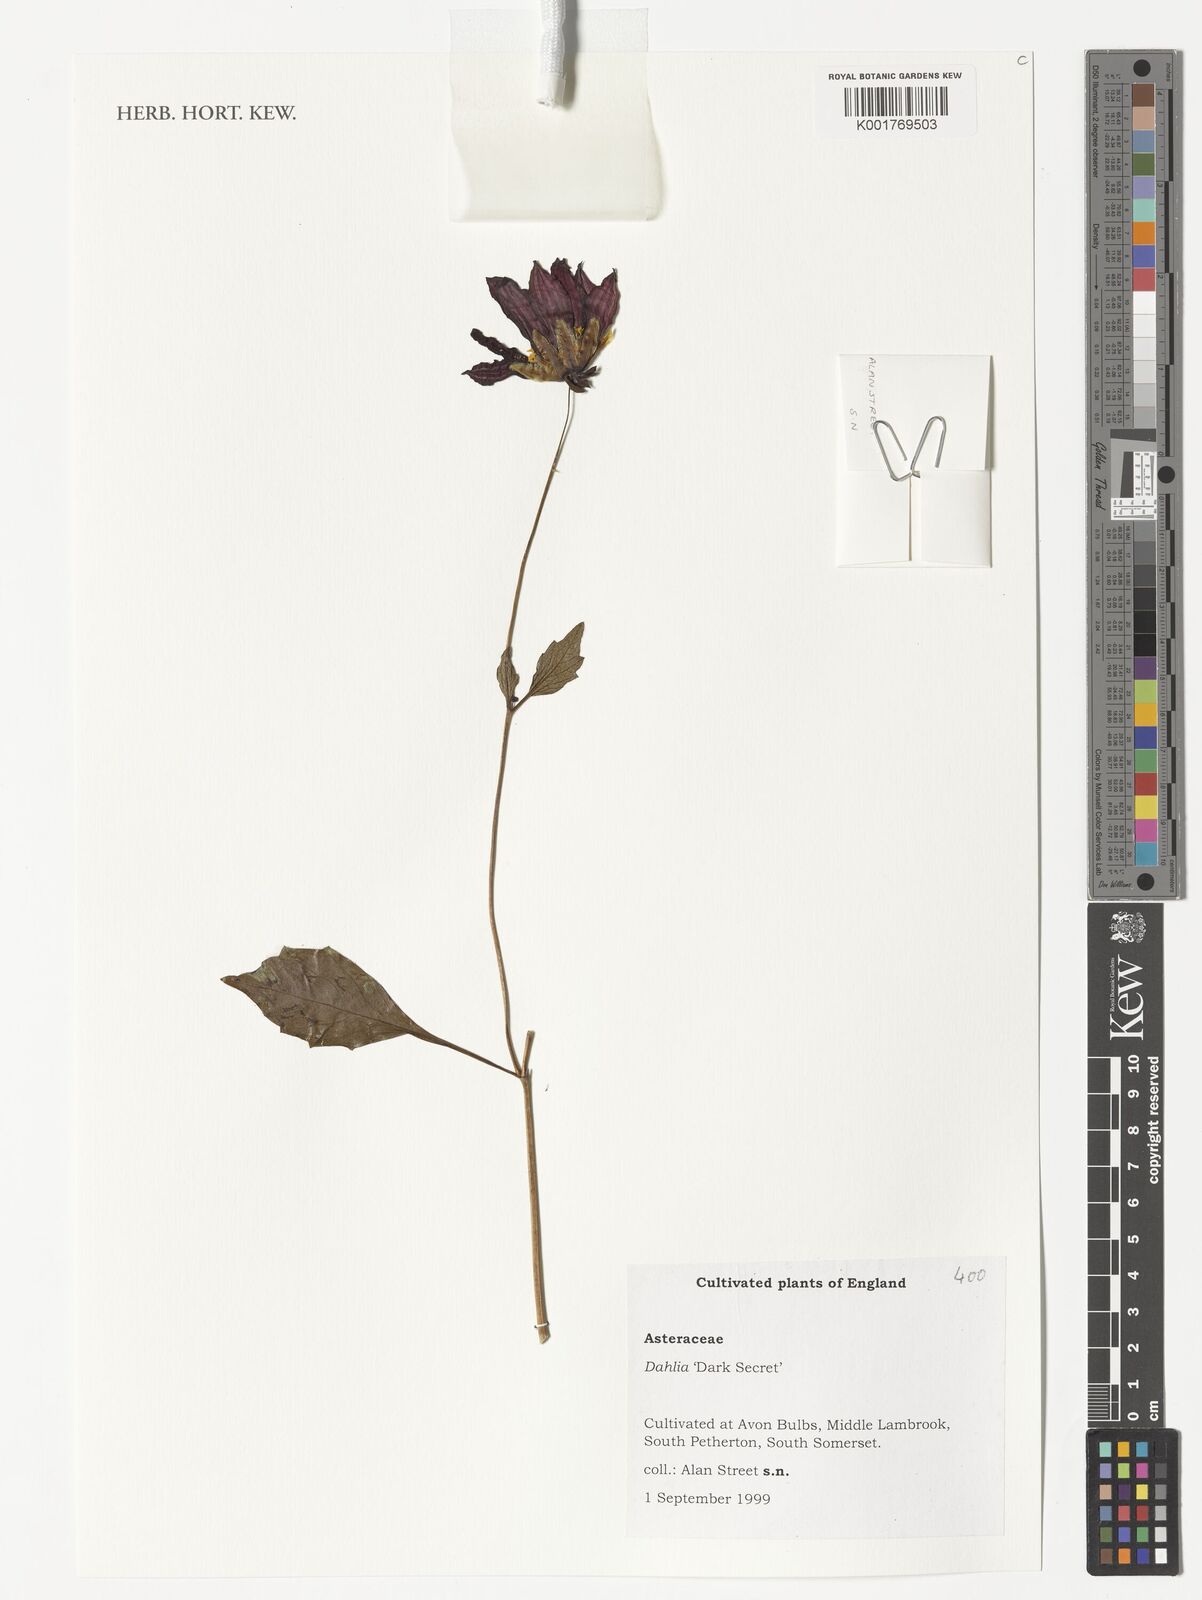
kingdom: Plantae
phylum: Tracheophyta
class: Magnoliopsida
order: Asterales
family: Asteraceae
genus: Dahlia
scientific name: Dahlia
